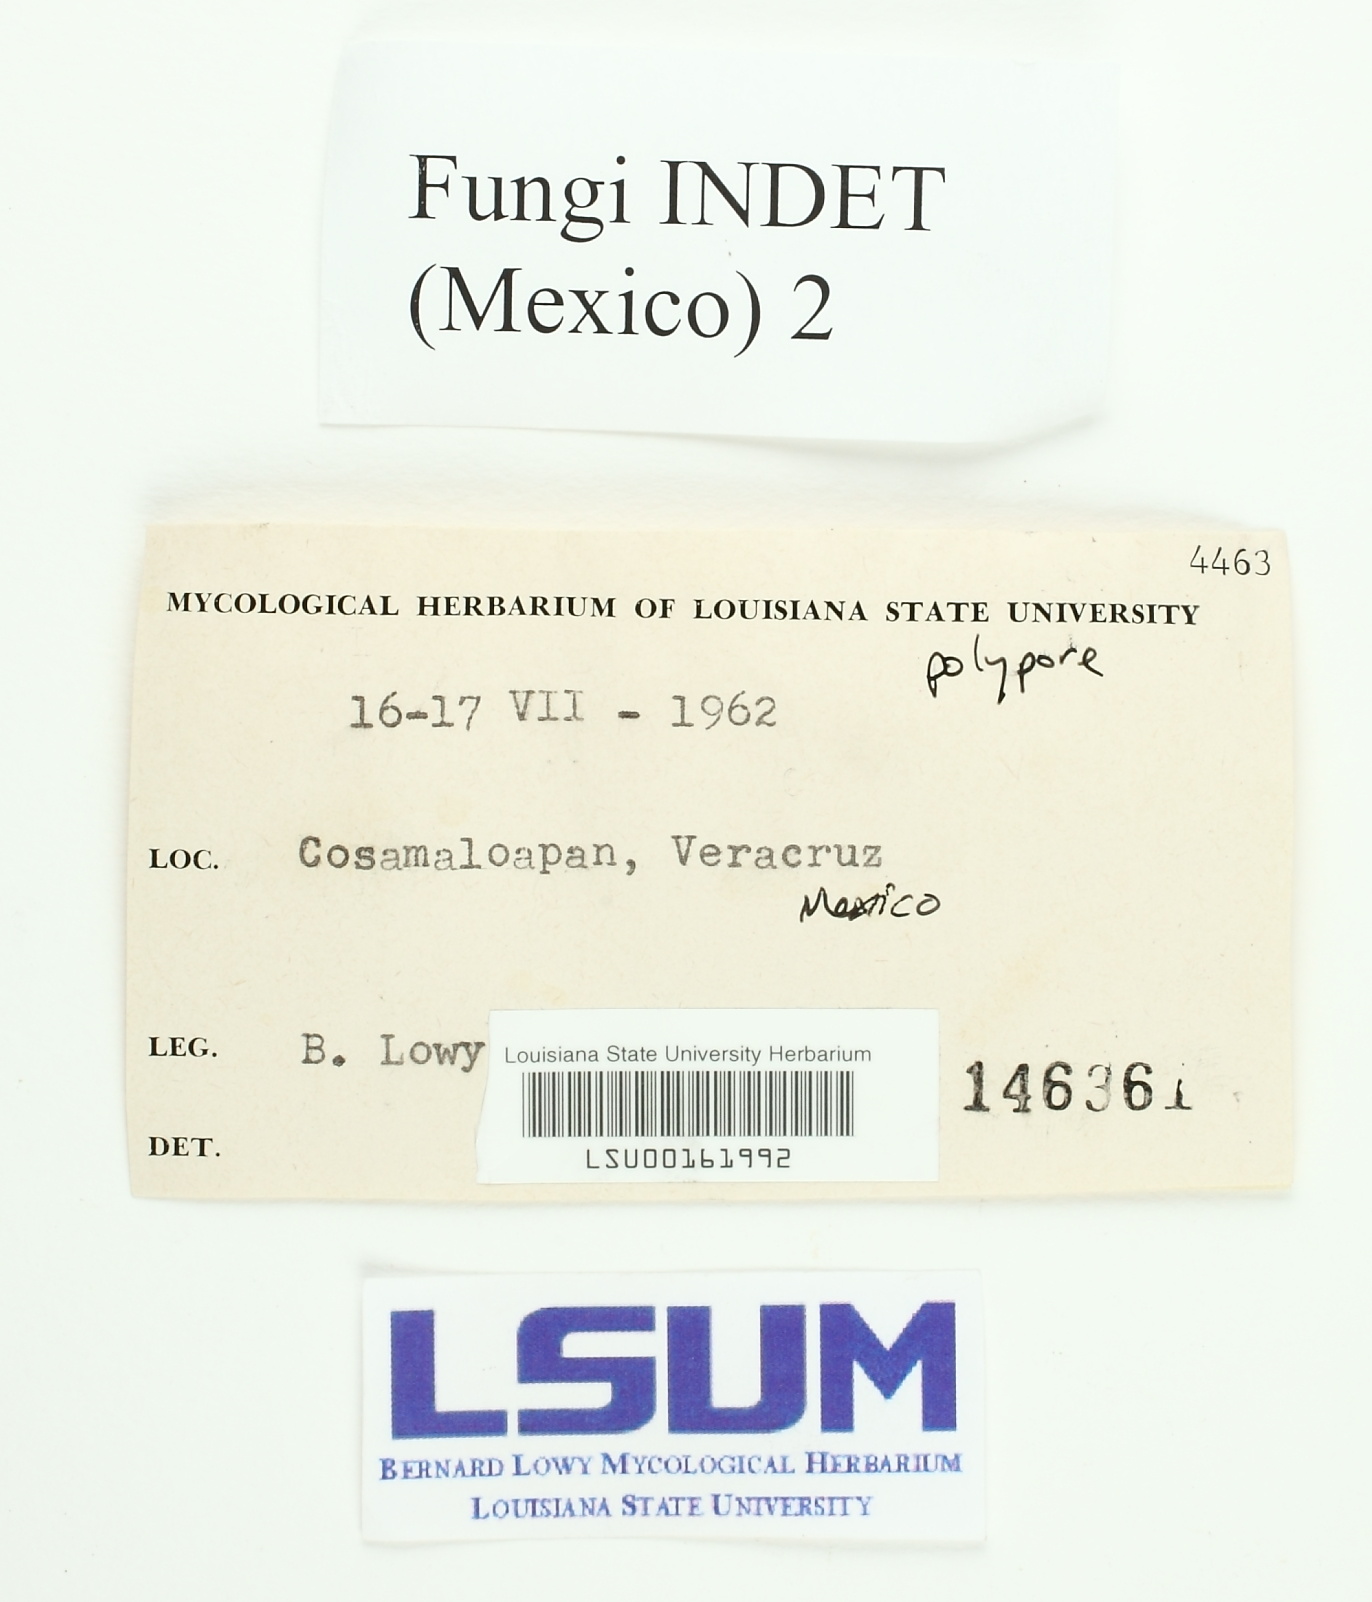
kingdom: Fungi
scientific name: Fungi
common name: Fungi
